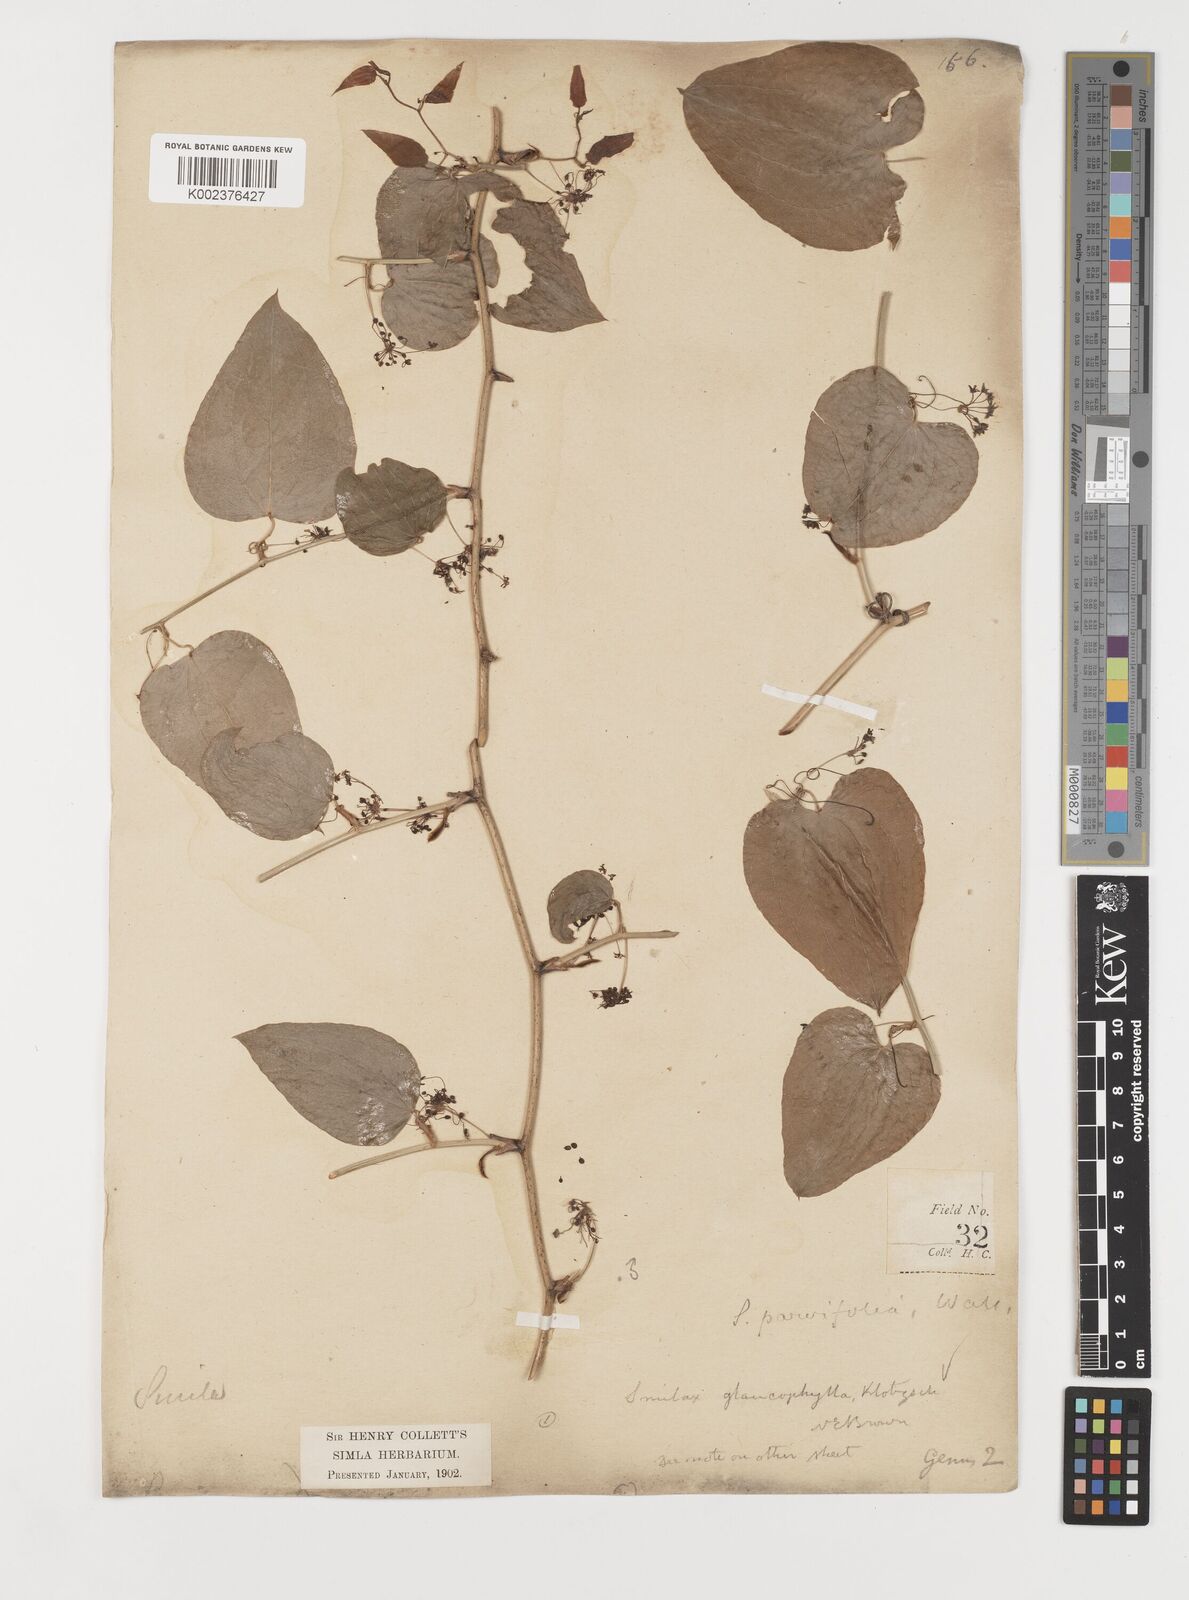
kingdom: Plantae
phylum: Tracheophyta
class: Liliopsida
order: Liliales
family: Smilacaceae
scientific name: Smilacaceae
